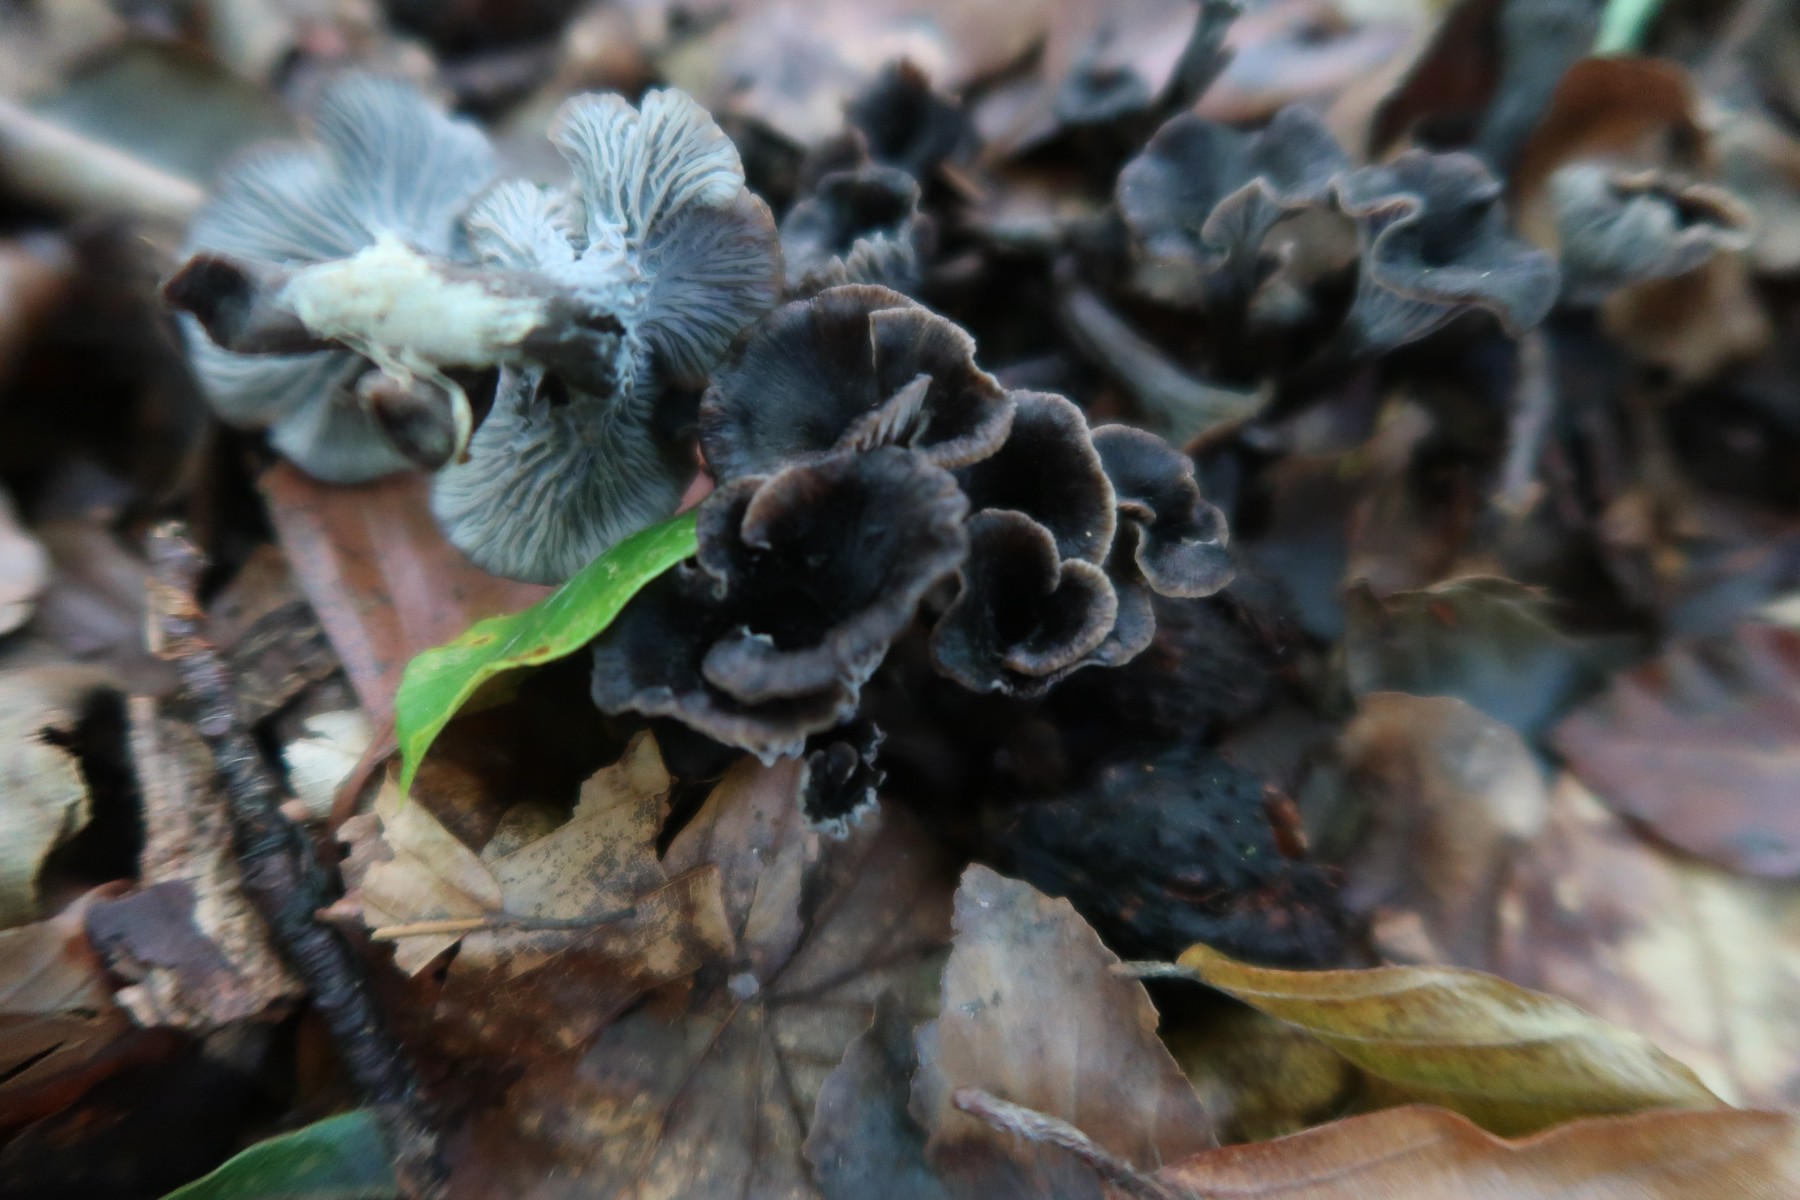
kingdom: Fungi
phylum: Basidiomycota
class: Agaricomycetes
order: Cantharellales
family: Hydnaceae
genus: Cantharellus
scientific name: Cantharellus cinereus
